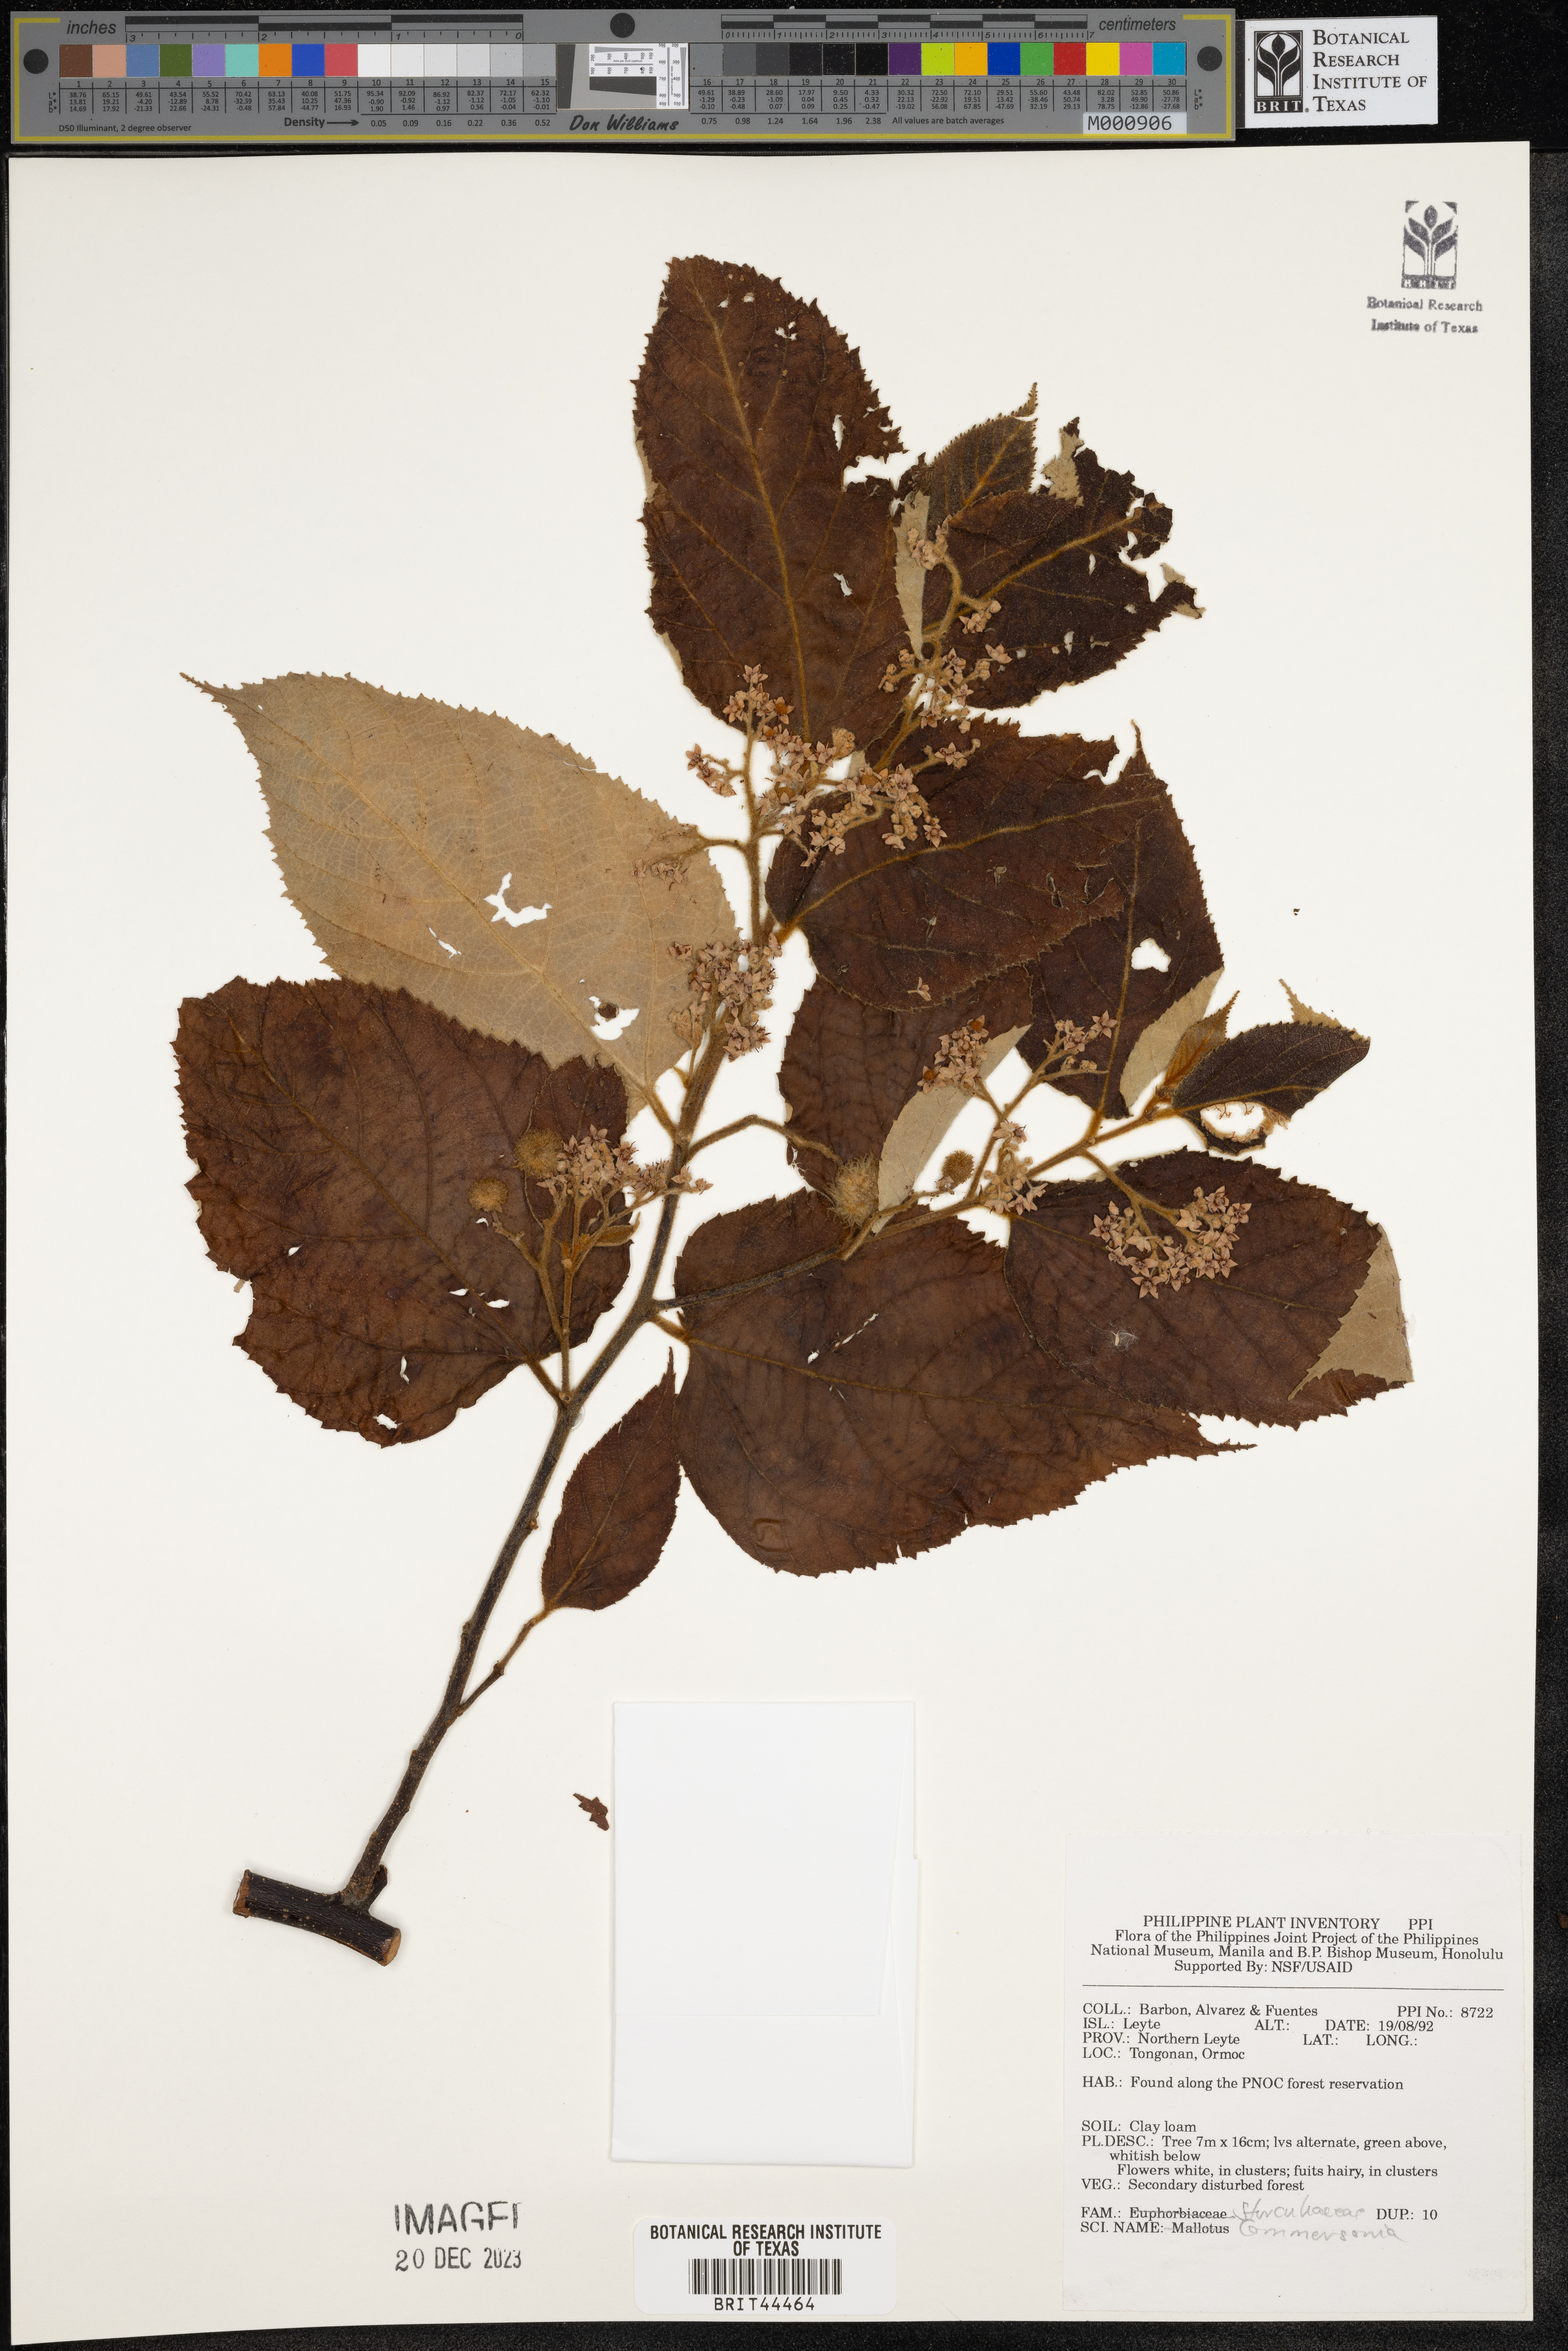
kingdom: Plantae
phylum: Tracheophyta
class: Magnoliopsida
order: Malvales
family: Malvaceae
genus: Commersonia
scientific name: Commersonia
